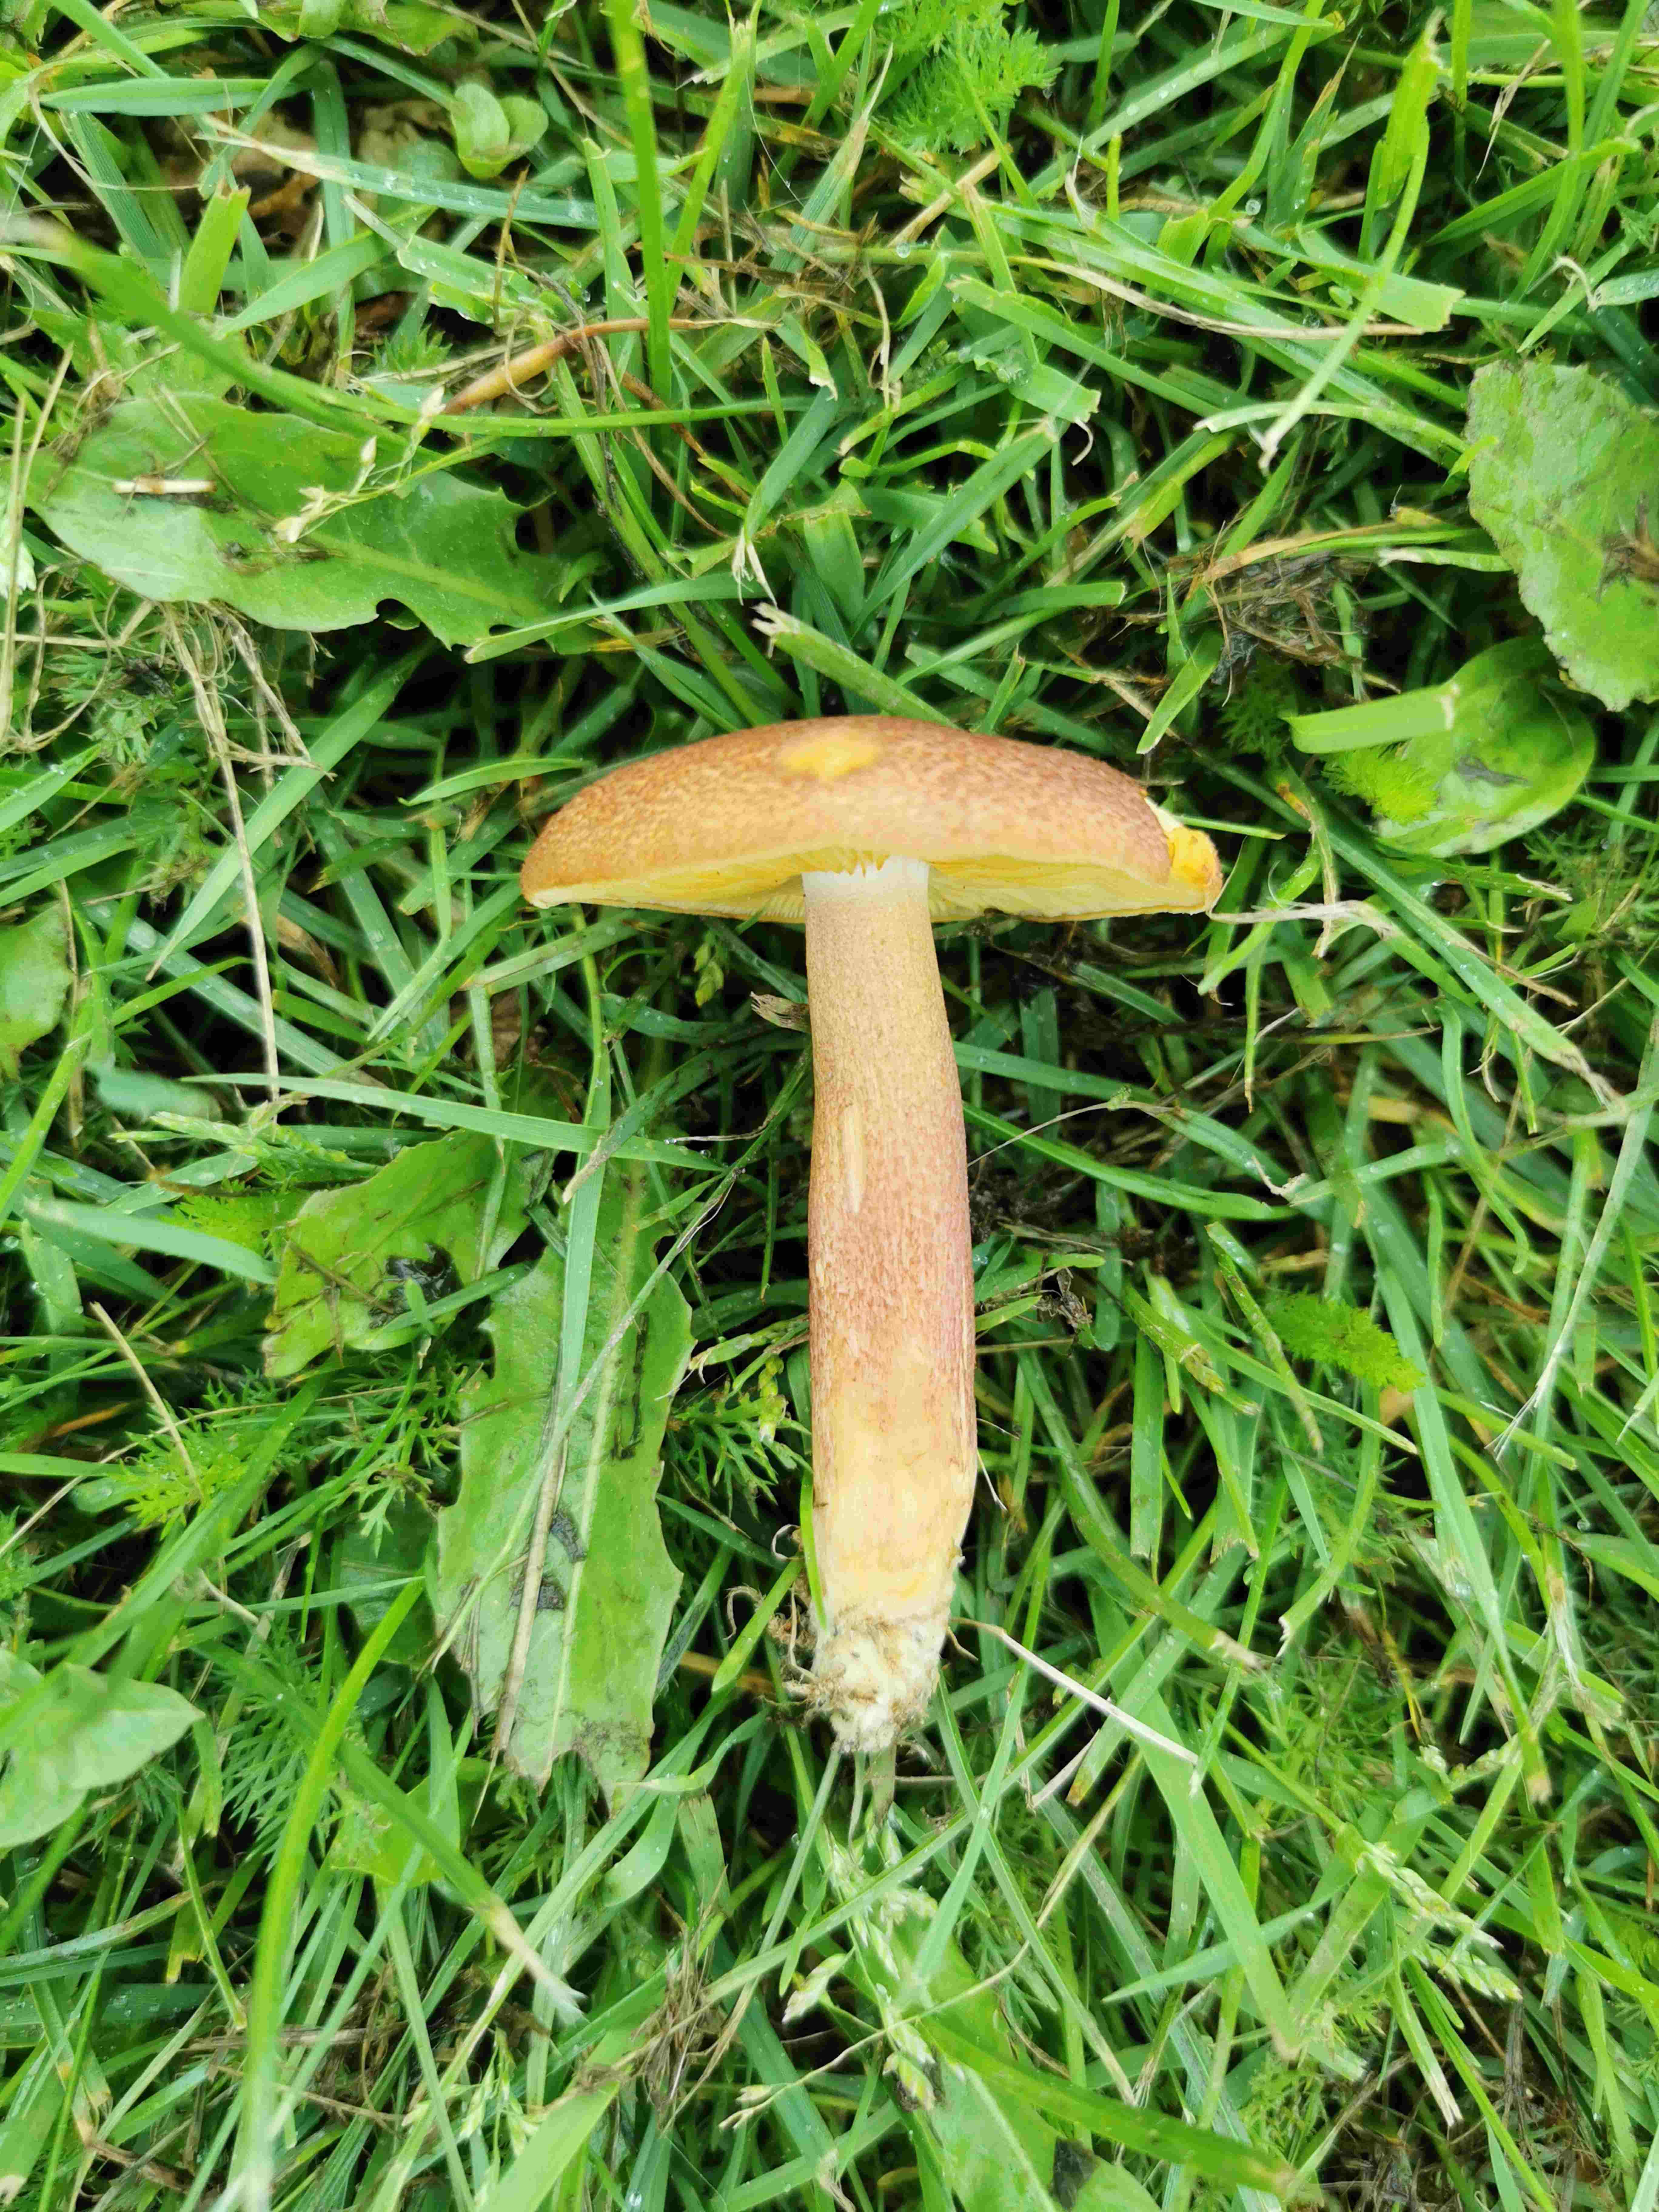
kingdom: Fungi
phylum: Basidiomycota
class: Agaricomycetes
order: Agaricales
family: Tricholomataceae
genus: Tricholomopsis
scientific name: Tricholomopsis rutilans
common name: purpur-væbnerhat
